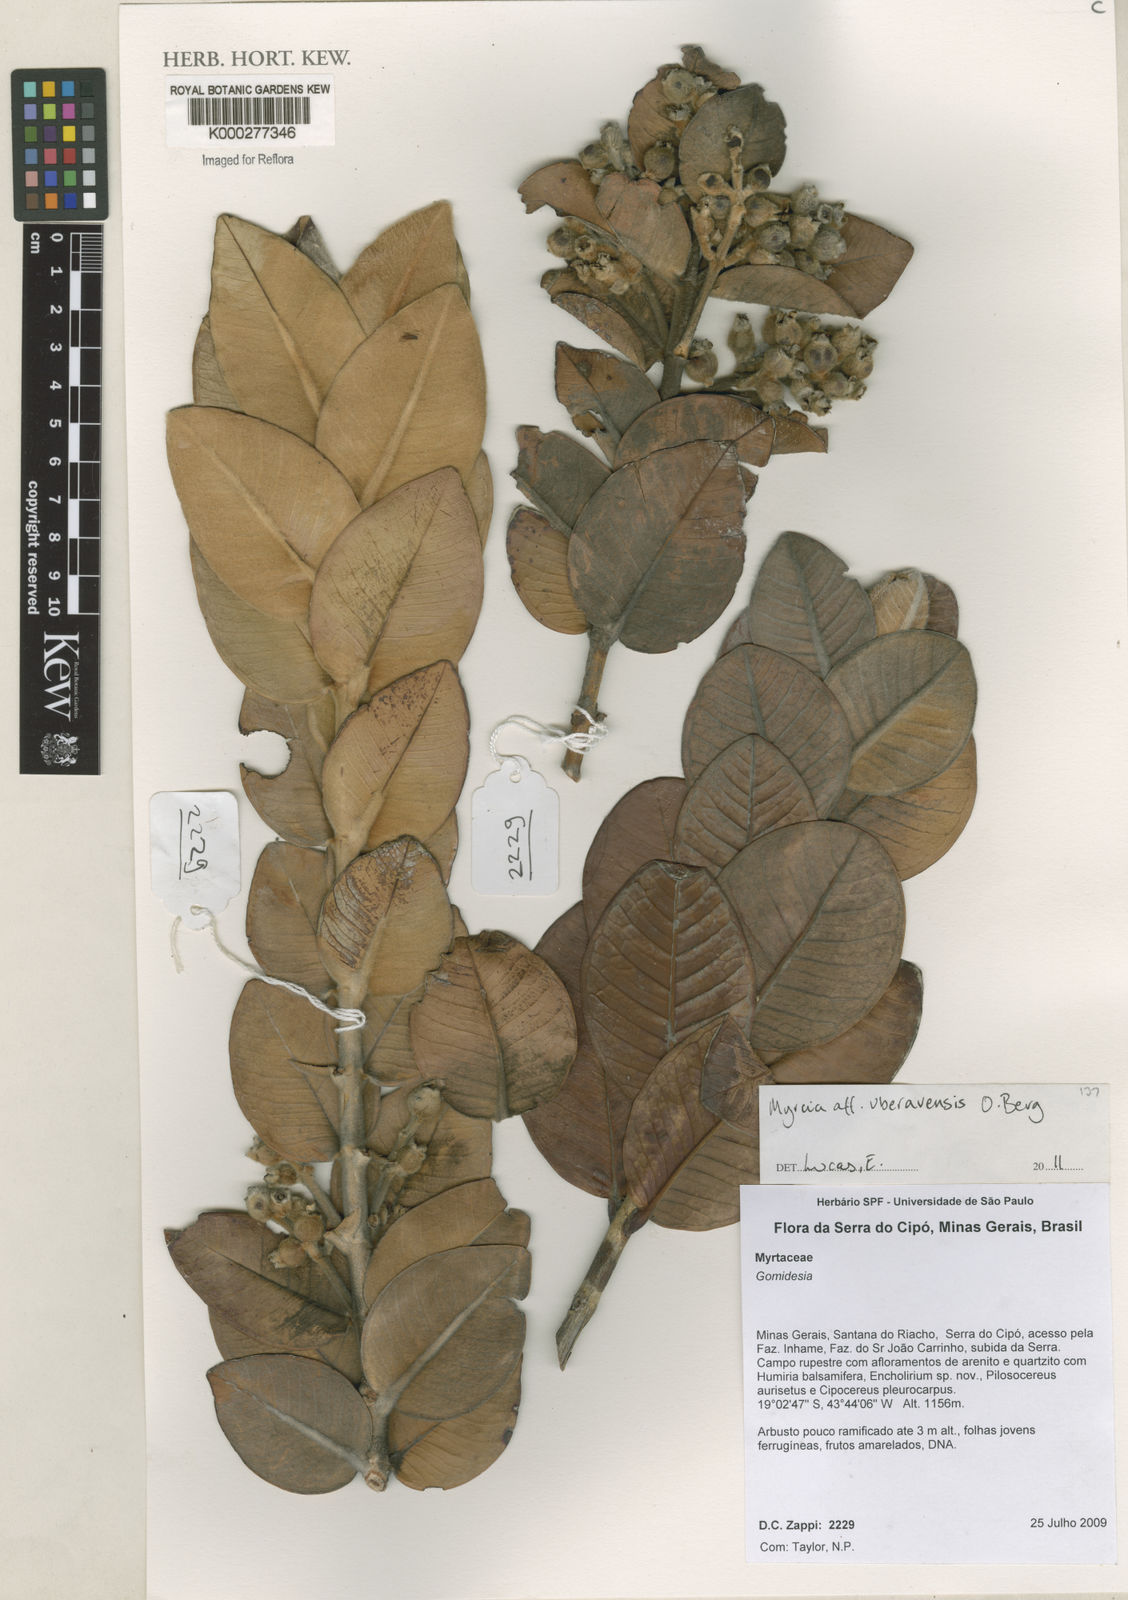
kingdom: Plantae
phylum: Tracheophyta
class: Magnoliopsida
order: Myrtales
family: Myrtaceae
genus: Myrcia
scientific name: Myrcia neospruceana
